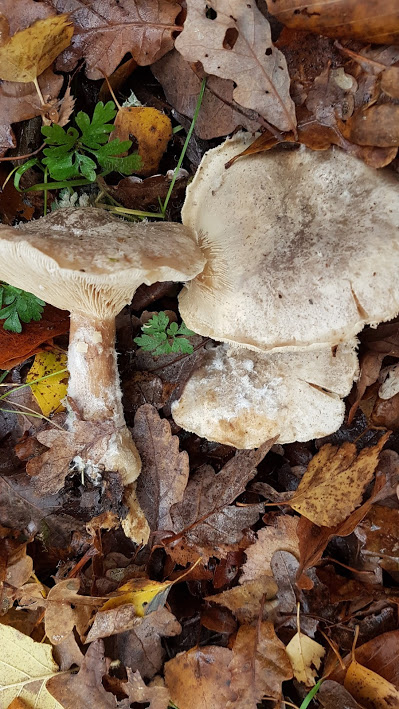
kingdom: Fungi
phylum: Basidiomycota
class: Agaricomycetes
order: Agaricales
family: Tricholomataceae
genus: Clitocybe
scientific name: Clitocybe nebularis
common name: tåge-tragthat
